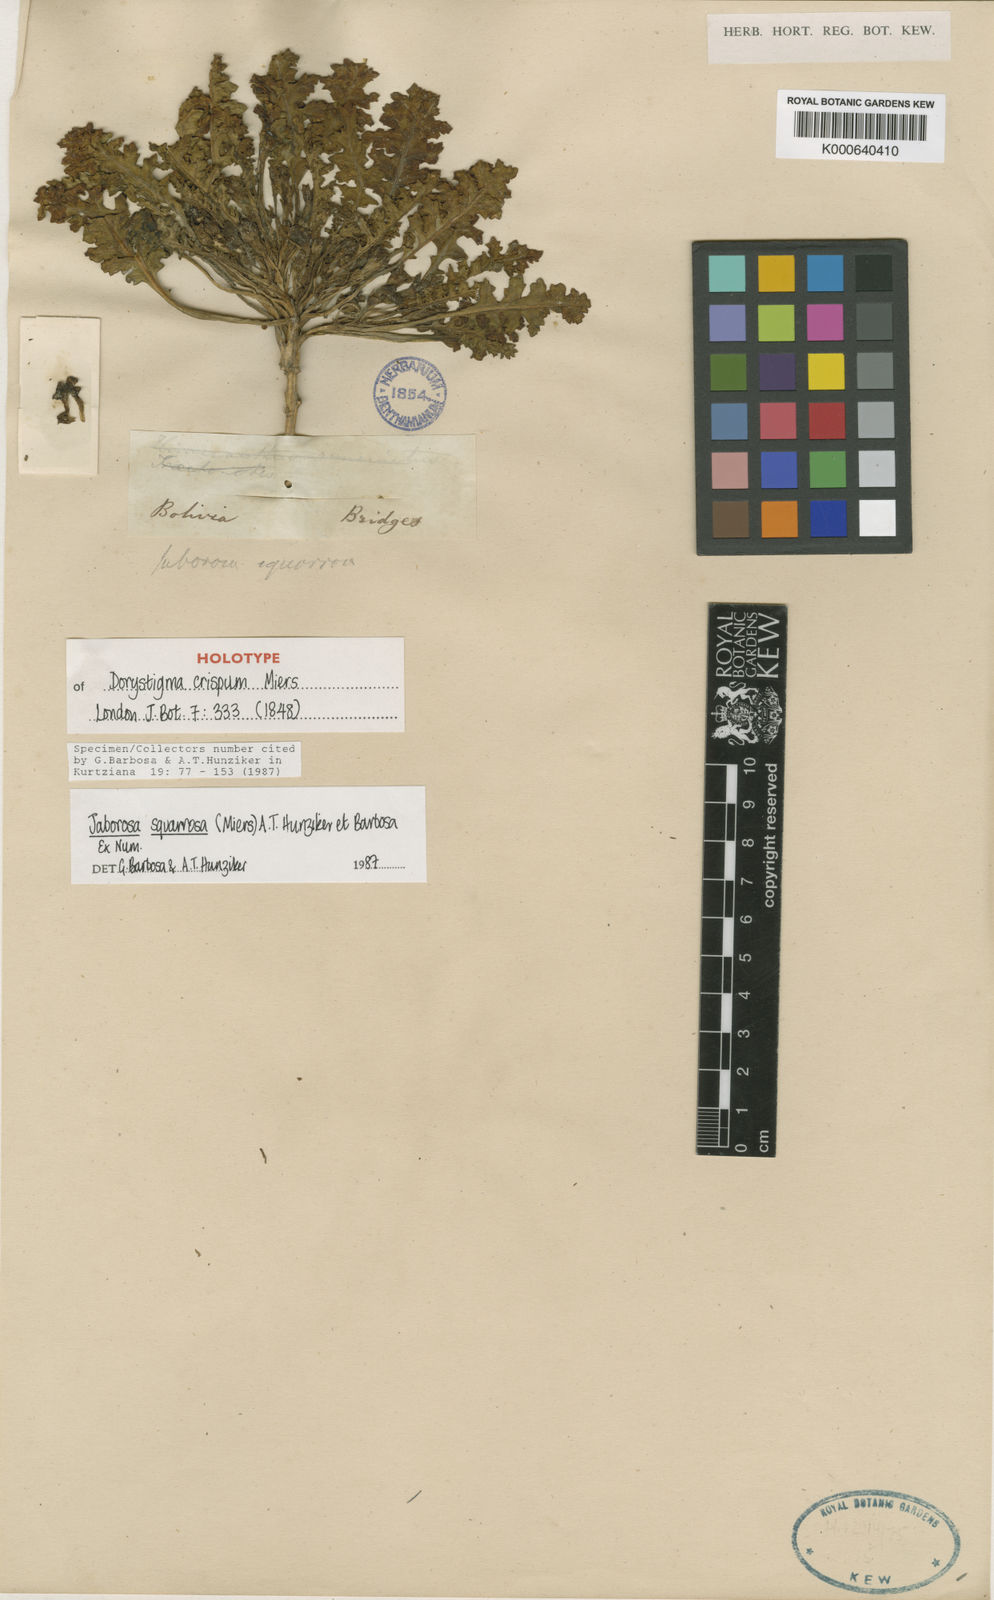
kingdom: Plantae
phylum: Tracheophyta
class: Magnoliopsida
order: Solanales
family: Solanaceae
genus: Jaborosa
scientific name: Jaborosa squarrosa
